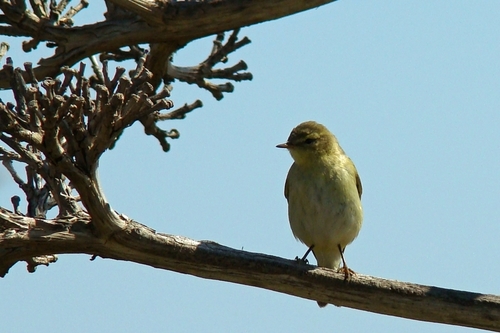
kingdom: Animalia
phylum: Chordata
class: Aves
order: Passeriformes
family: Phylloscopidae
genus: Phylloscopus
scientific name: Phylloscopus ibericus
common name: Iberian chiffchaff
